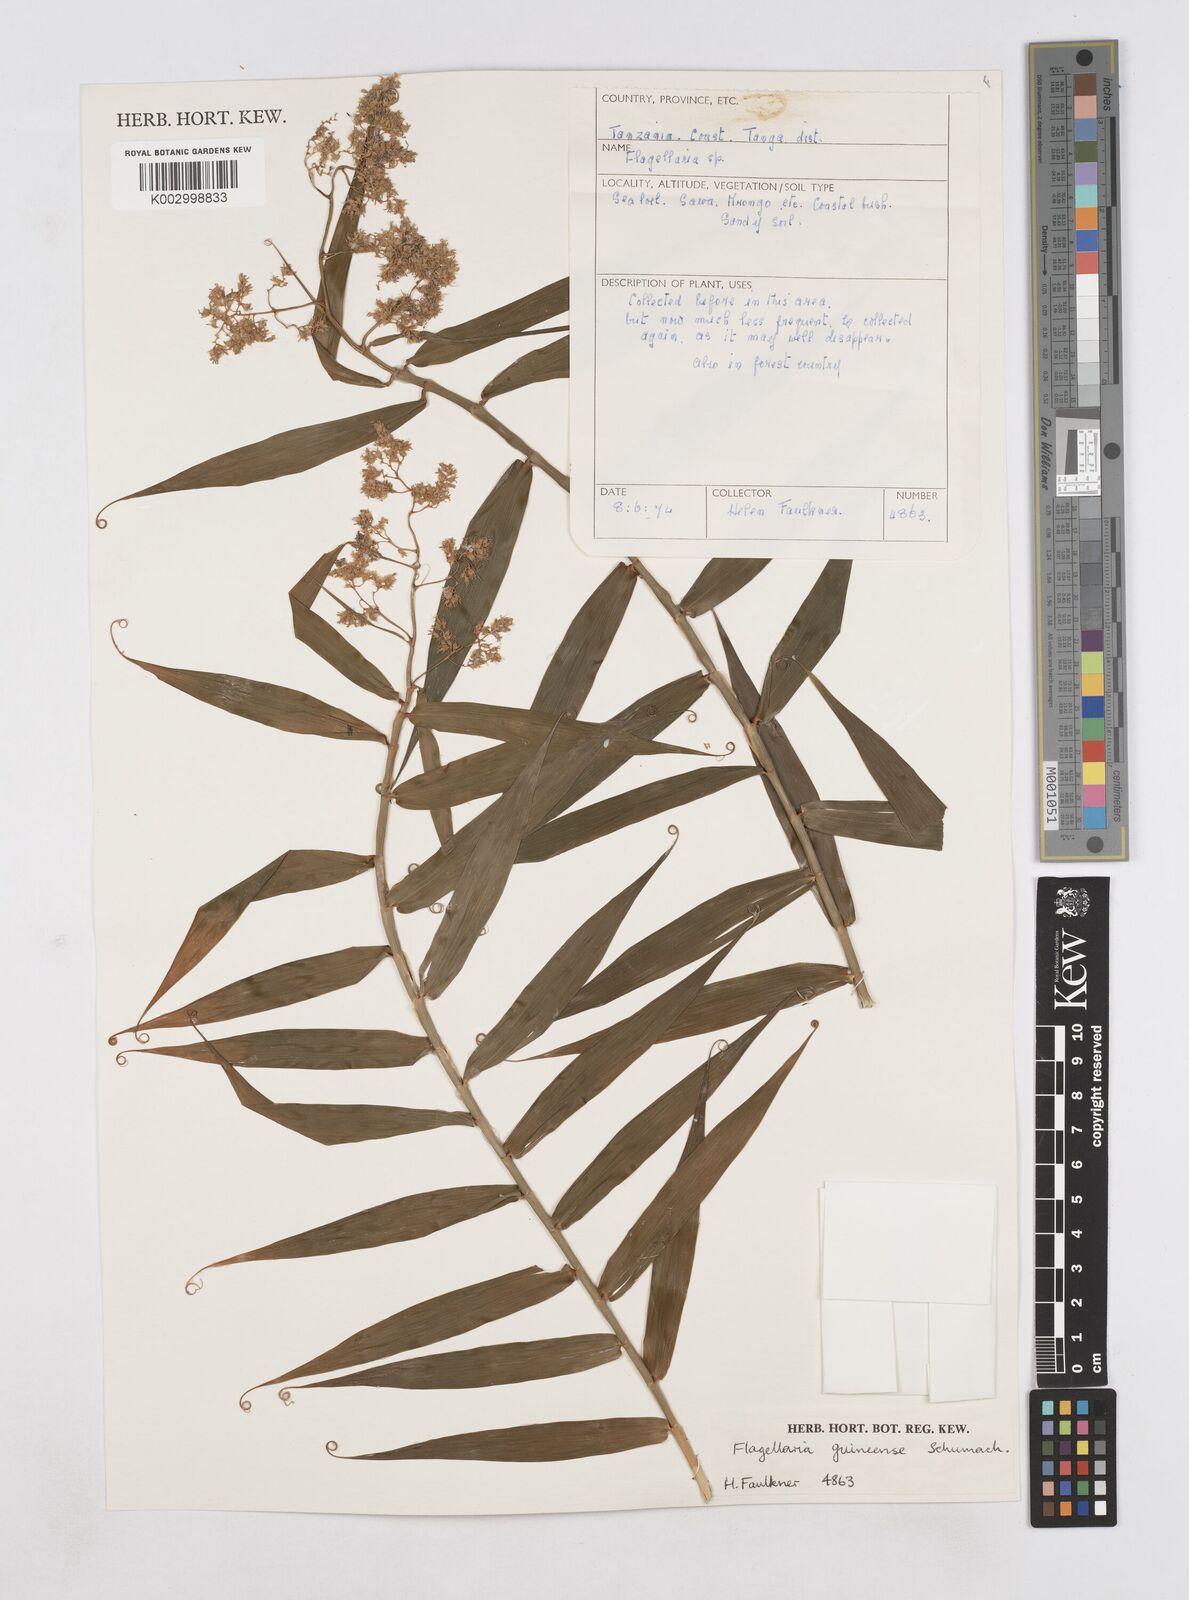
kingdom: Plantae
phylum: Tracheophyta
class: Liliopsida
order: Poales
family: Flagellariaceae
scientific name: Flagellariaceae
